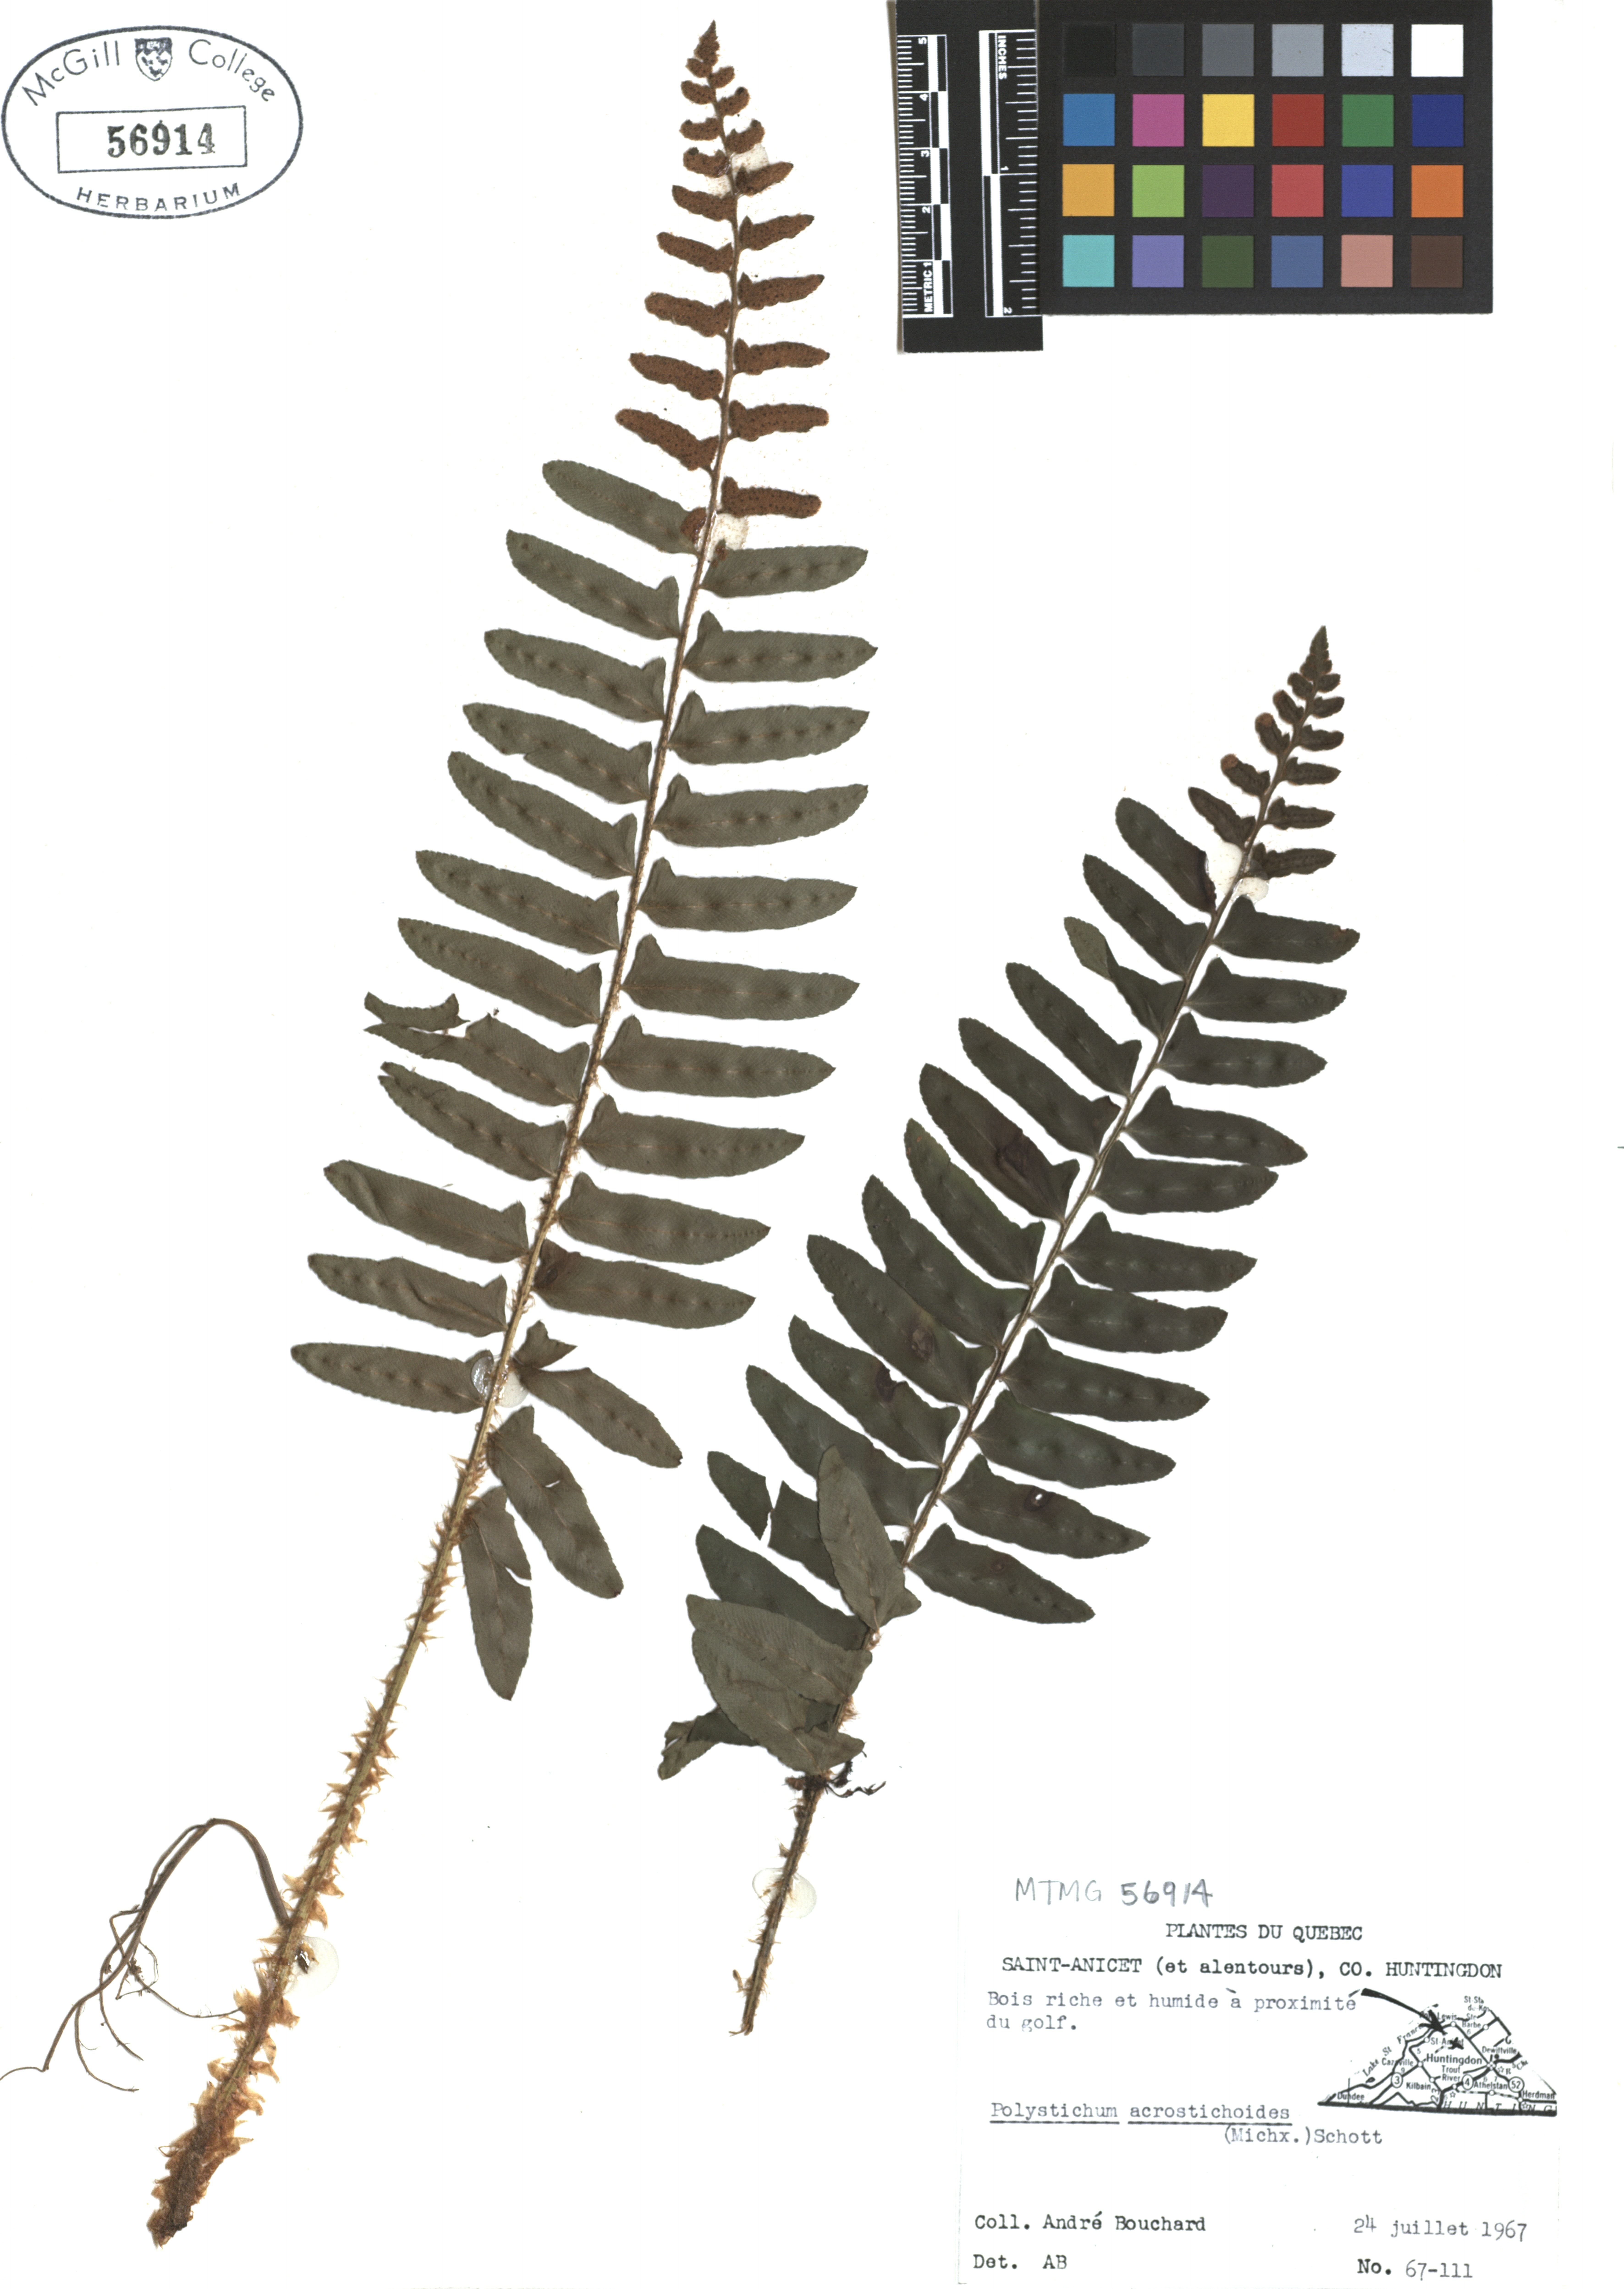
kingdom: Plantae
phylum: Tracheophyta
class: Polypodiopsida
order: Polypodiales
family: Dryopteridaceae
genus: Polystichum
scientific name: Polystichum acrostichoides
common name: Christmas fern
